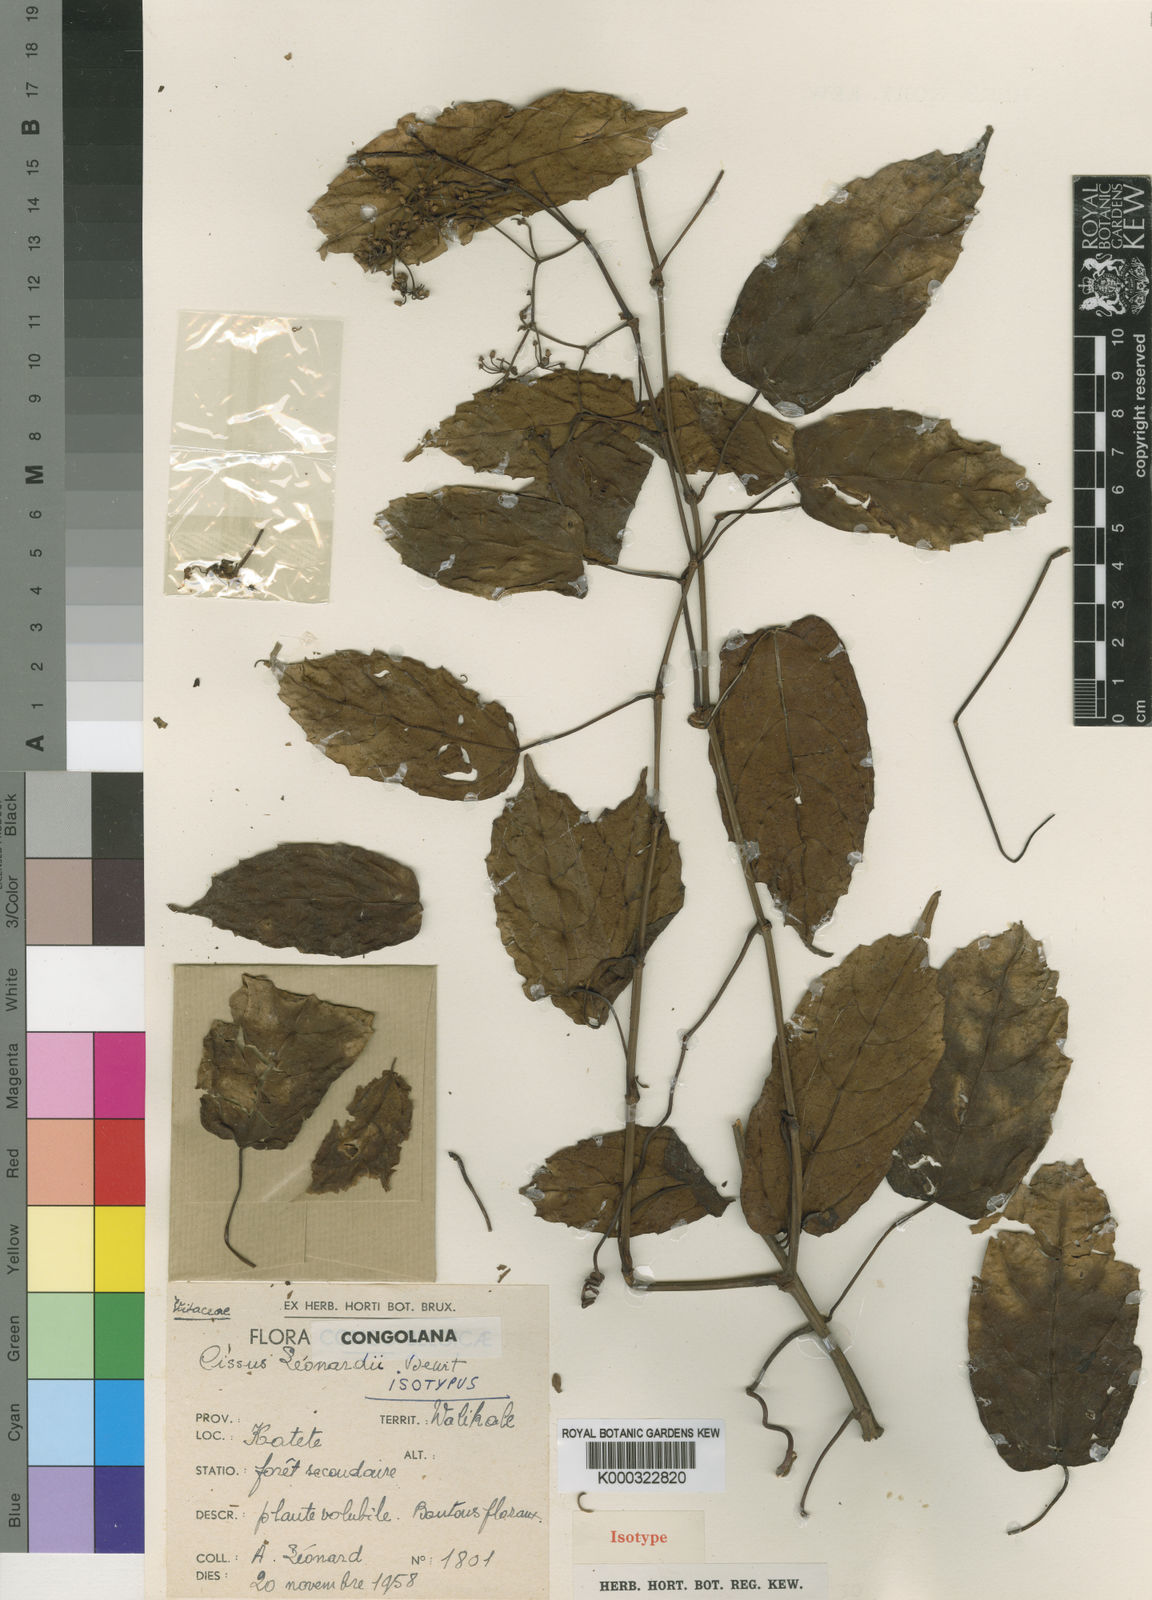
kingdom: Plantae
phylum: Tracheophyta
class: Magnoliopsida
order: Vitales
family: Vitaceae
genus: Cissus
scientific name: Cissus leonardii
